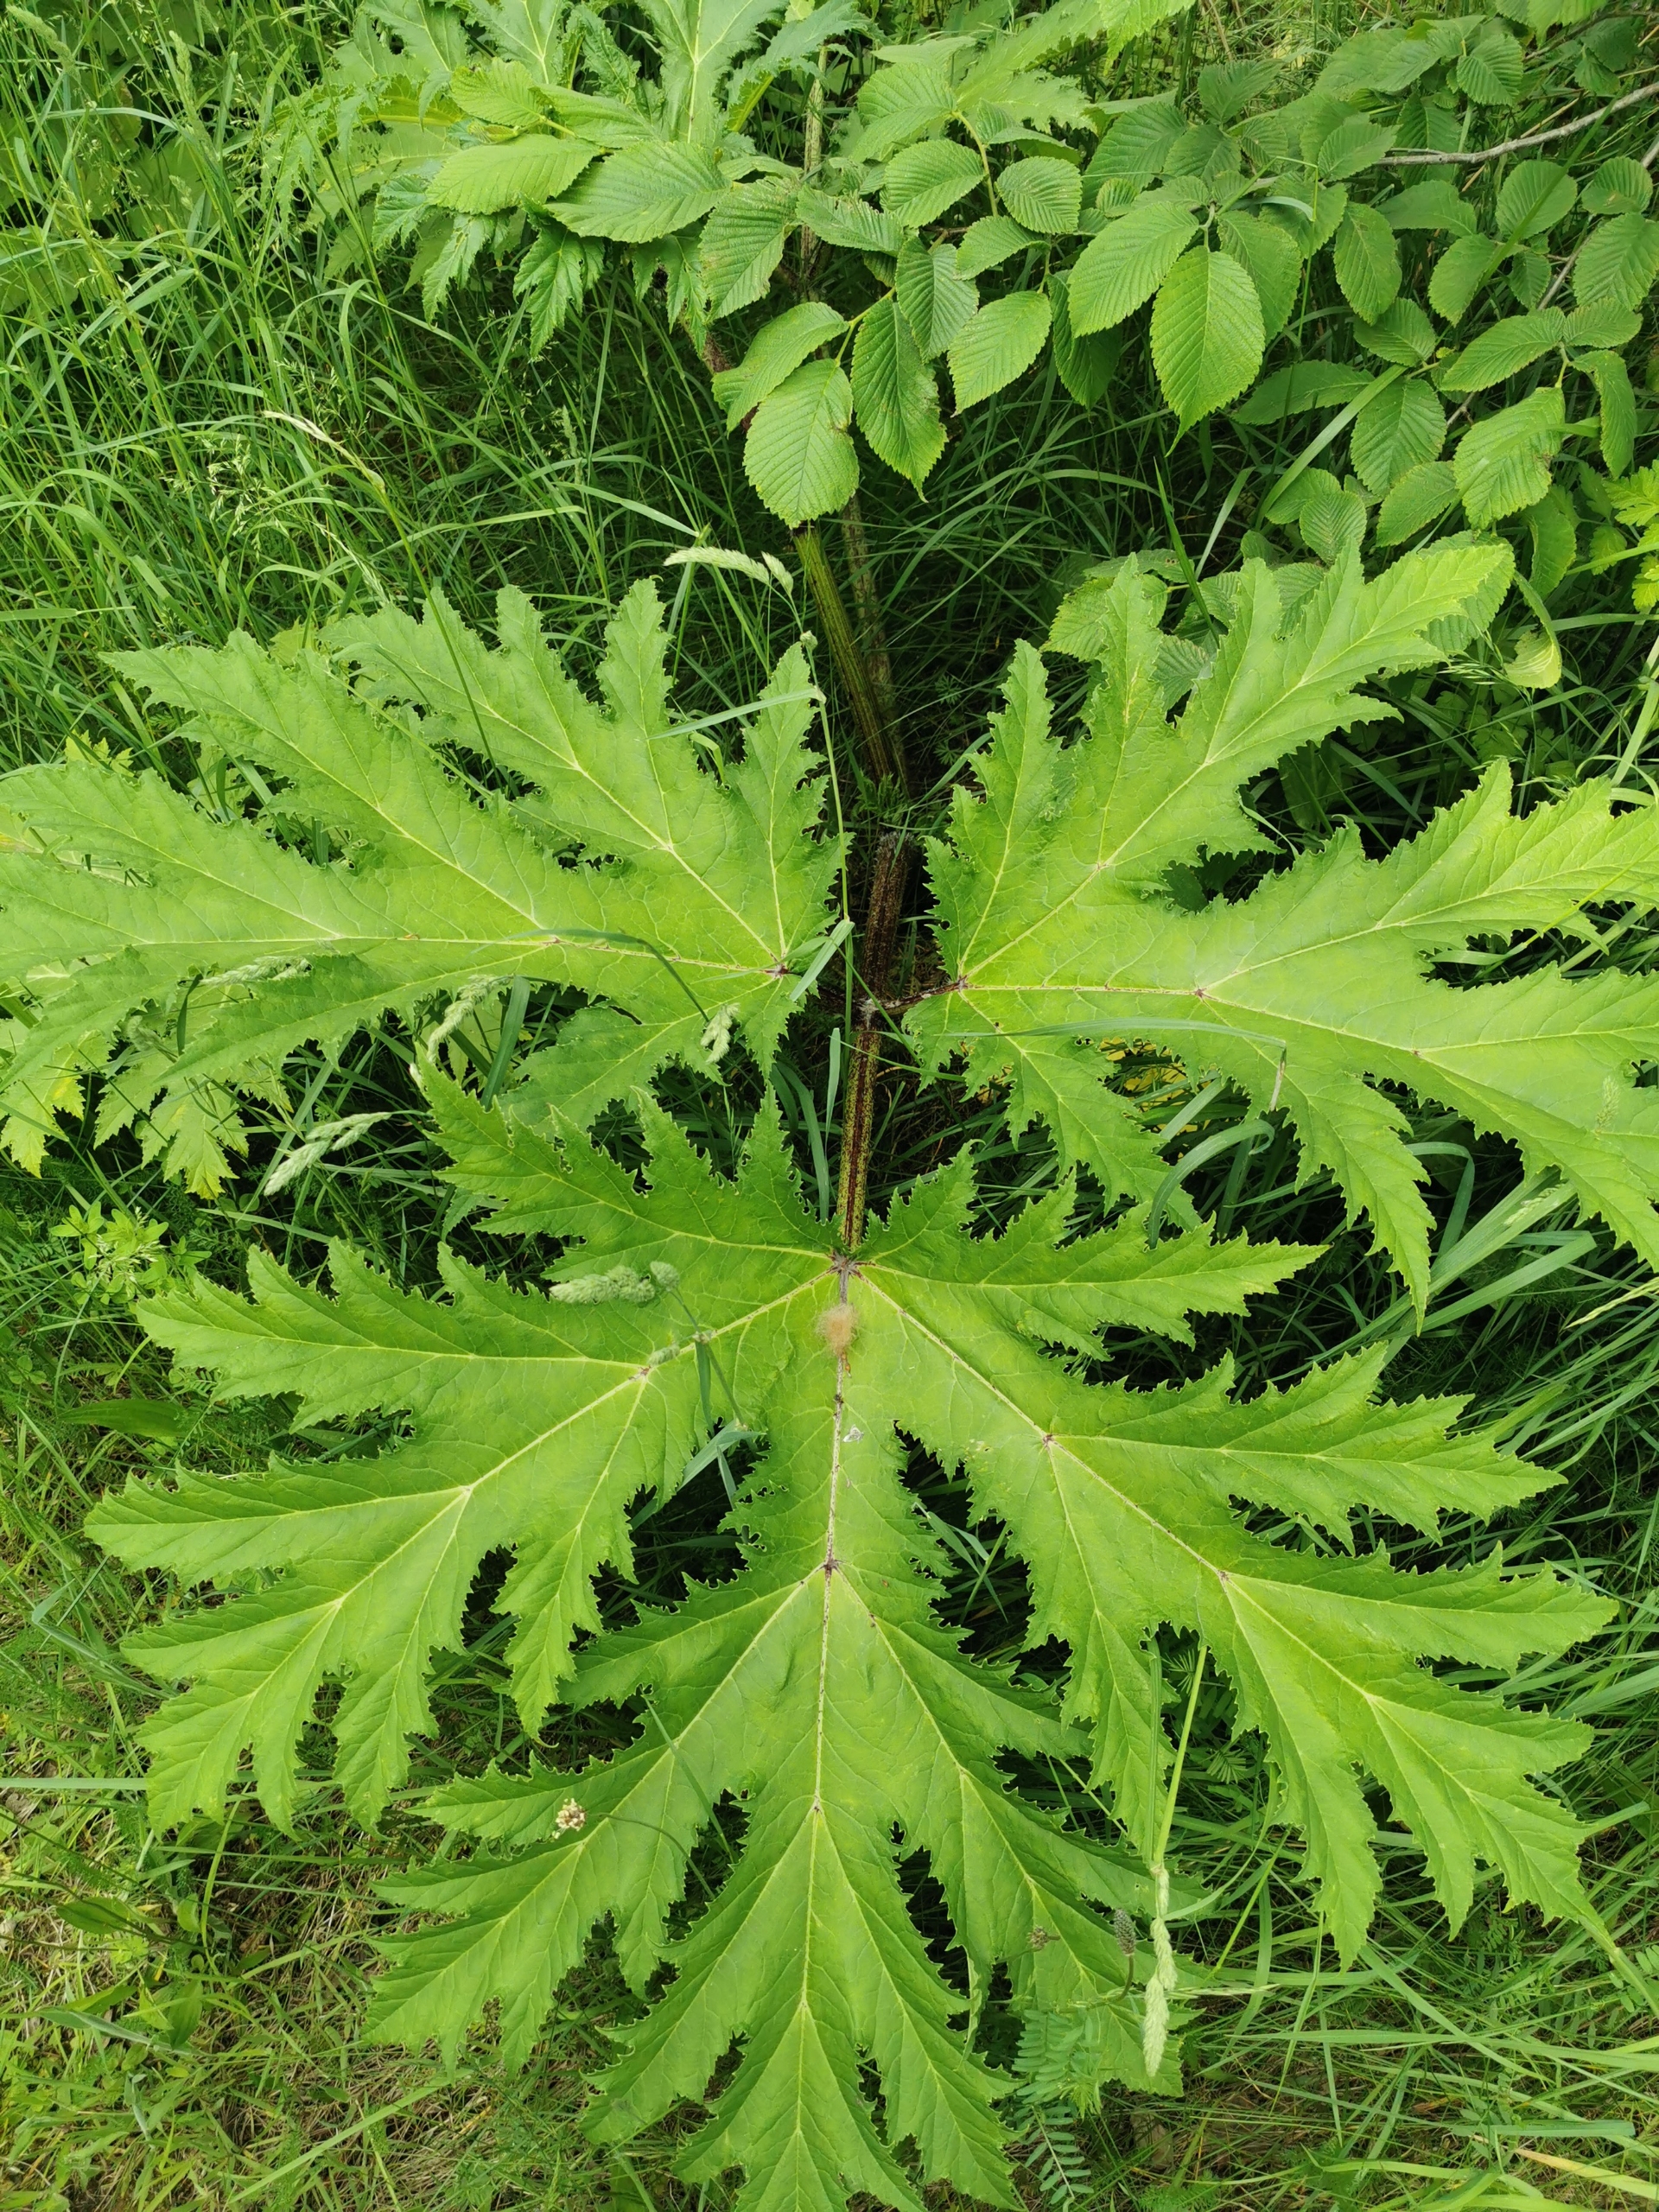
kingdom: Plantae
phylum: Tracheophyta
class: Magnoliopsida
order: Apiales
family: Apiaceae
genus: Heracleum
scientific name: Heracleum mantegazzianum
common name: Kæmpe-bjørneklo
